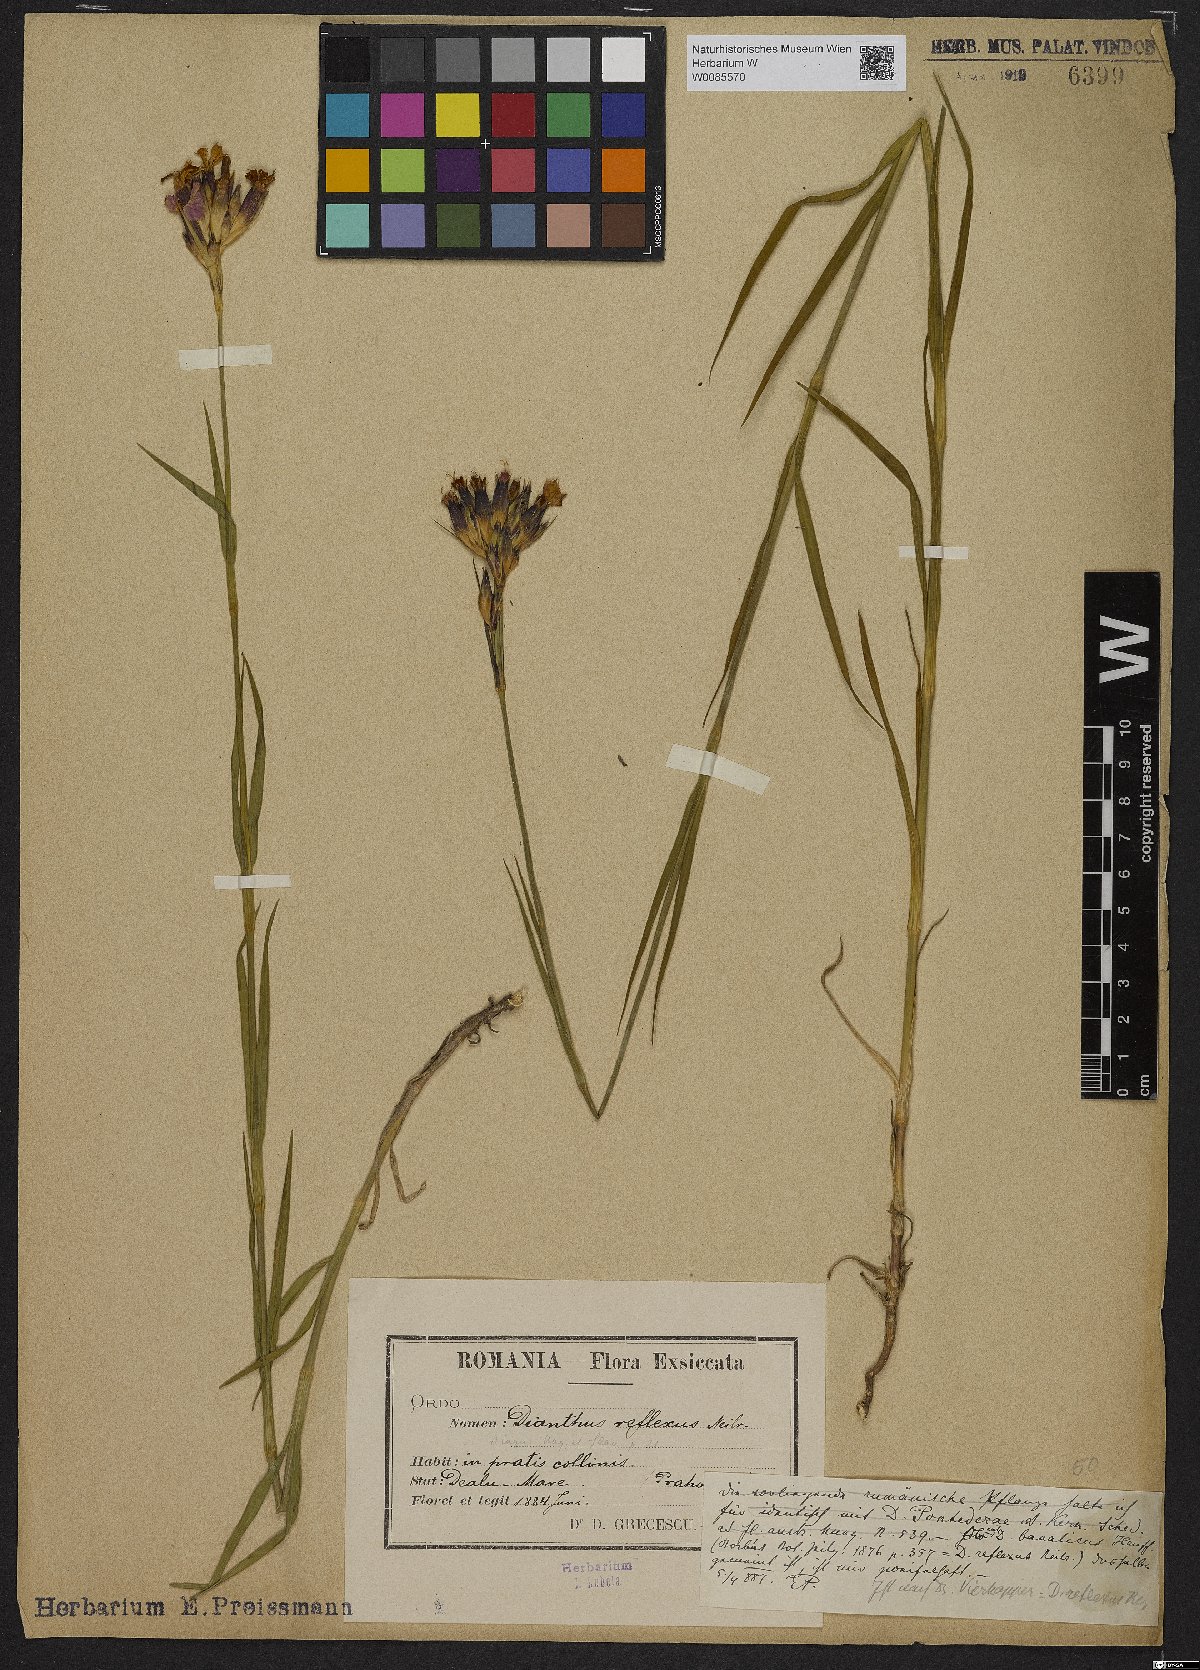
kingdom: Plantae
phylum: Tracheophyta
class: Magnoliopsida
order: Caryophyllales
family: Caryophyllaceae
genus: Dianthus
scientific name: Dianthus
